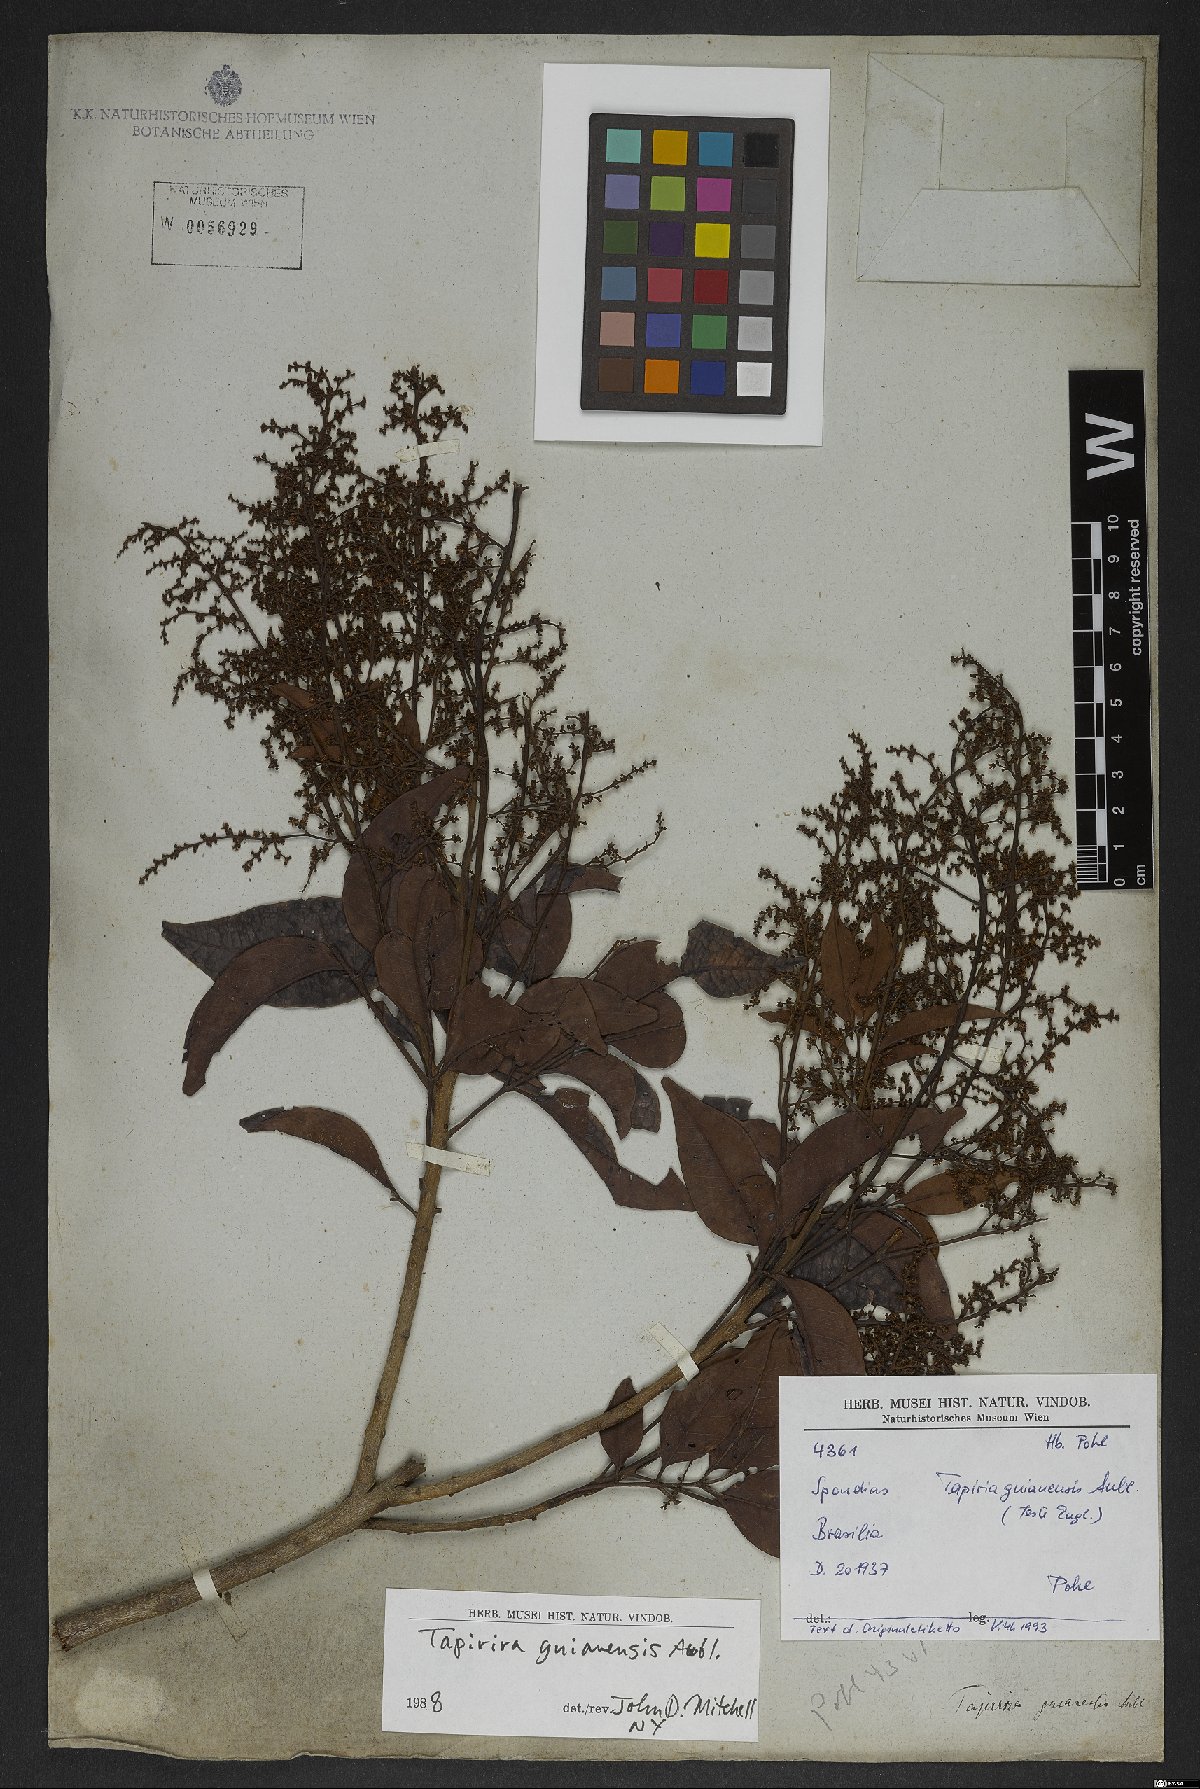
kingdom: Plantae
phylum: Tracheophyta
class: Magnoliopsida
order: Sapindales
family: Anacardiaceae
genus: Tapirira
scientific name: Tapirira guianensis
